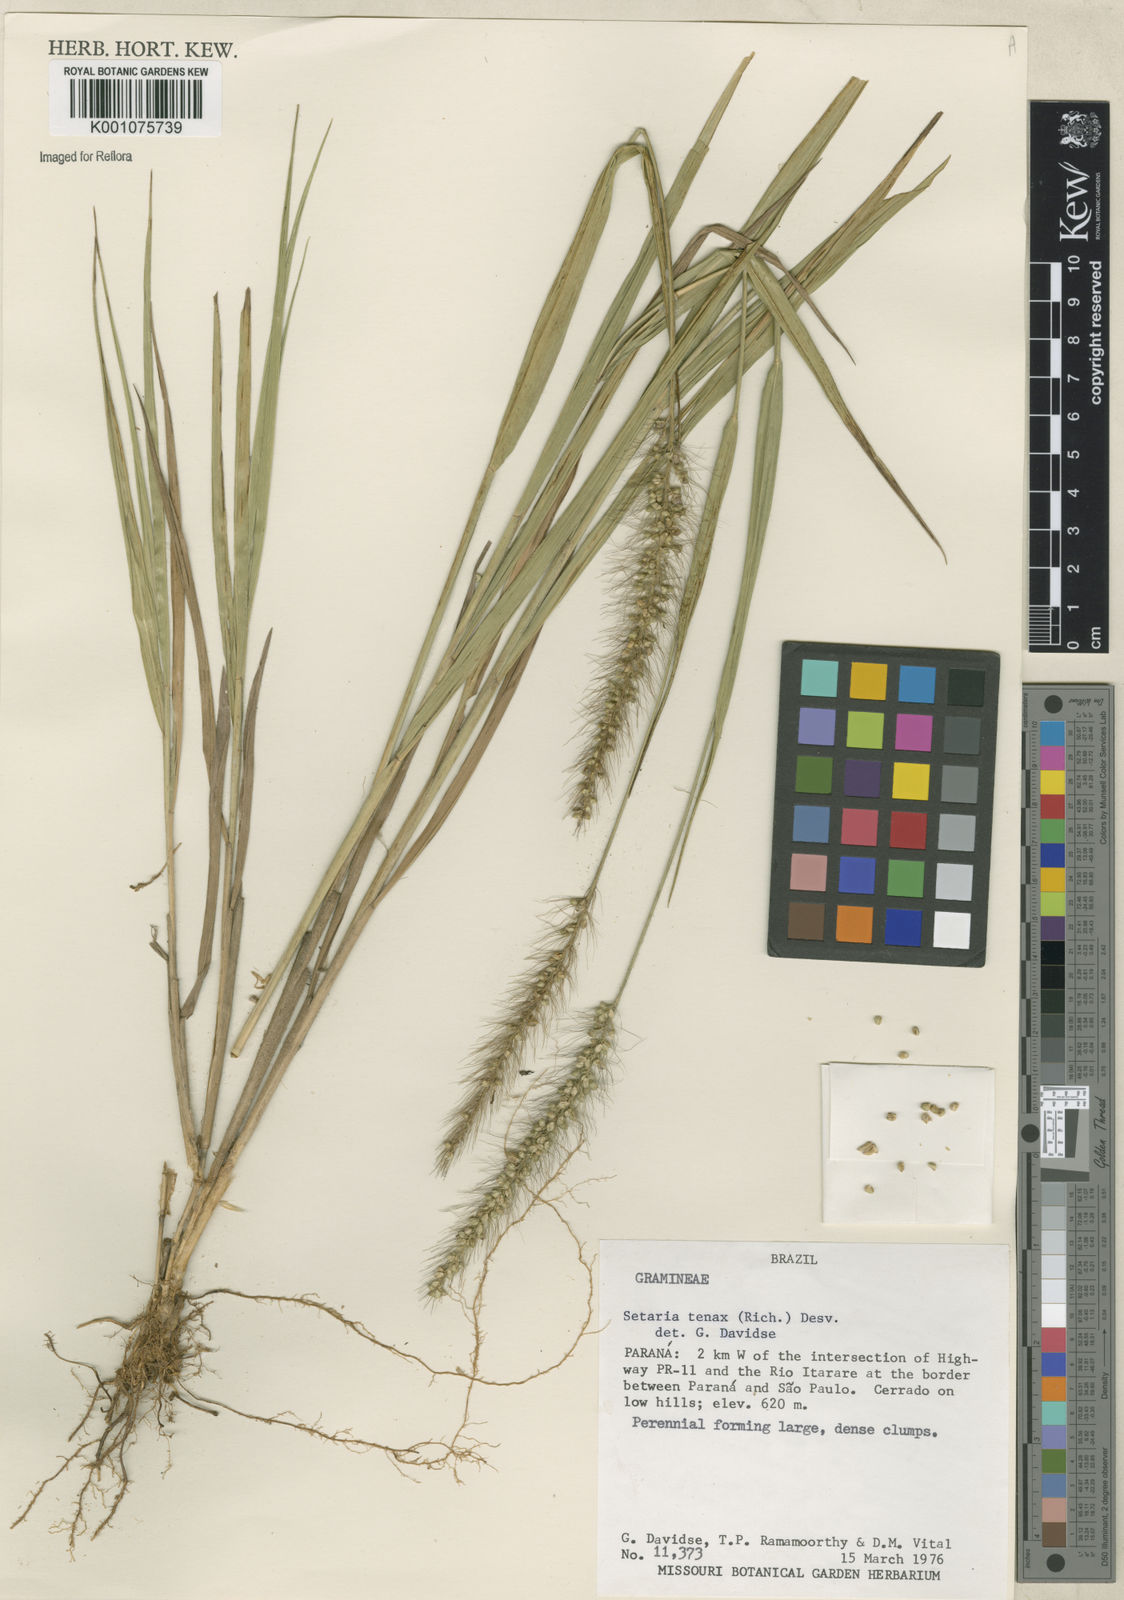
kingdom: Plantae
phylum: Tracheophyta
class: Liliopsida
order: Poales
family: Poaceae
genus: Setaria
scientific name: Setaria tenax
